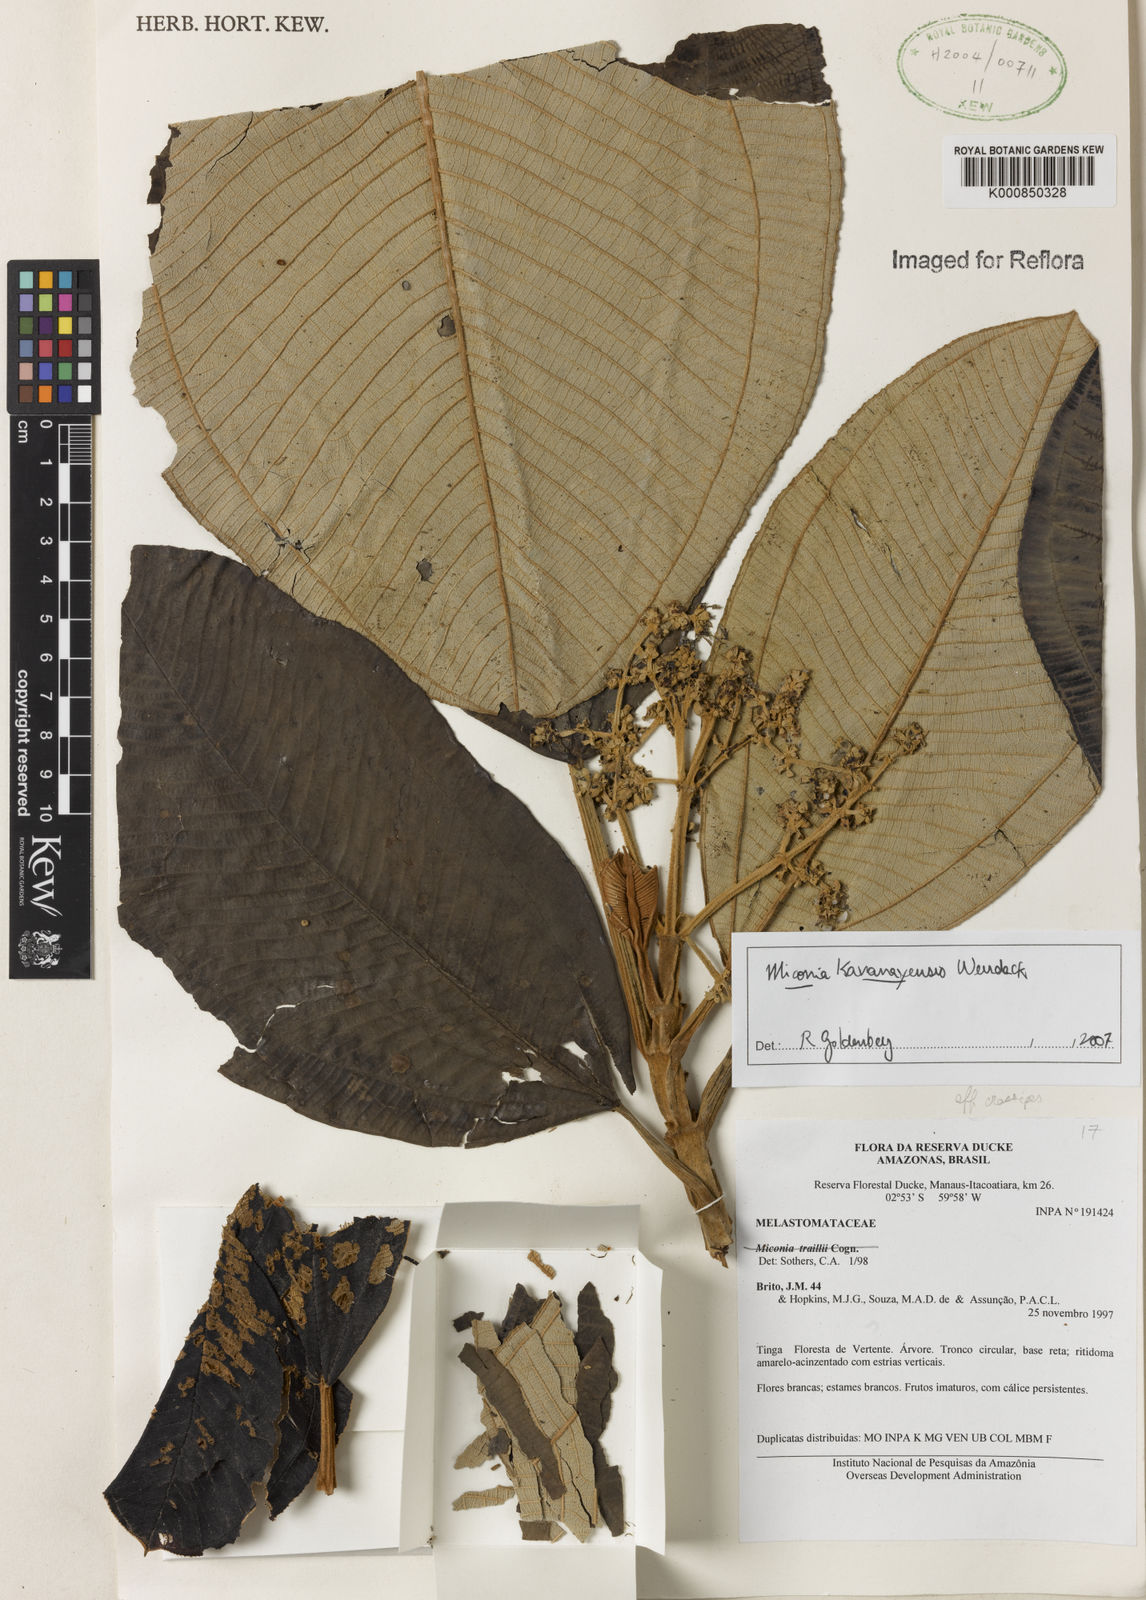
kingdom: Plantae
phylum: Tracheophyta
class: Magnoliopsida
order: Myrtales
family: Melastomataceae
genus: Miconia
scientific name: Miconia kavanayensis
